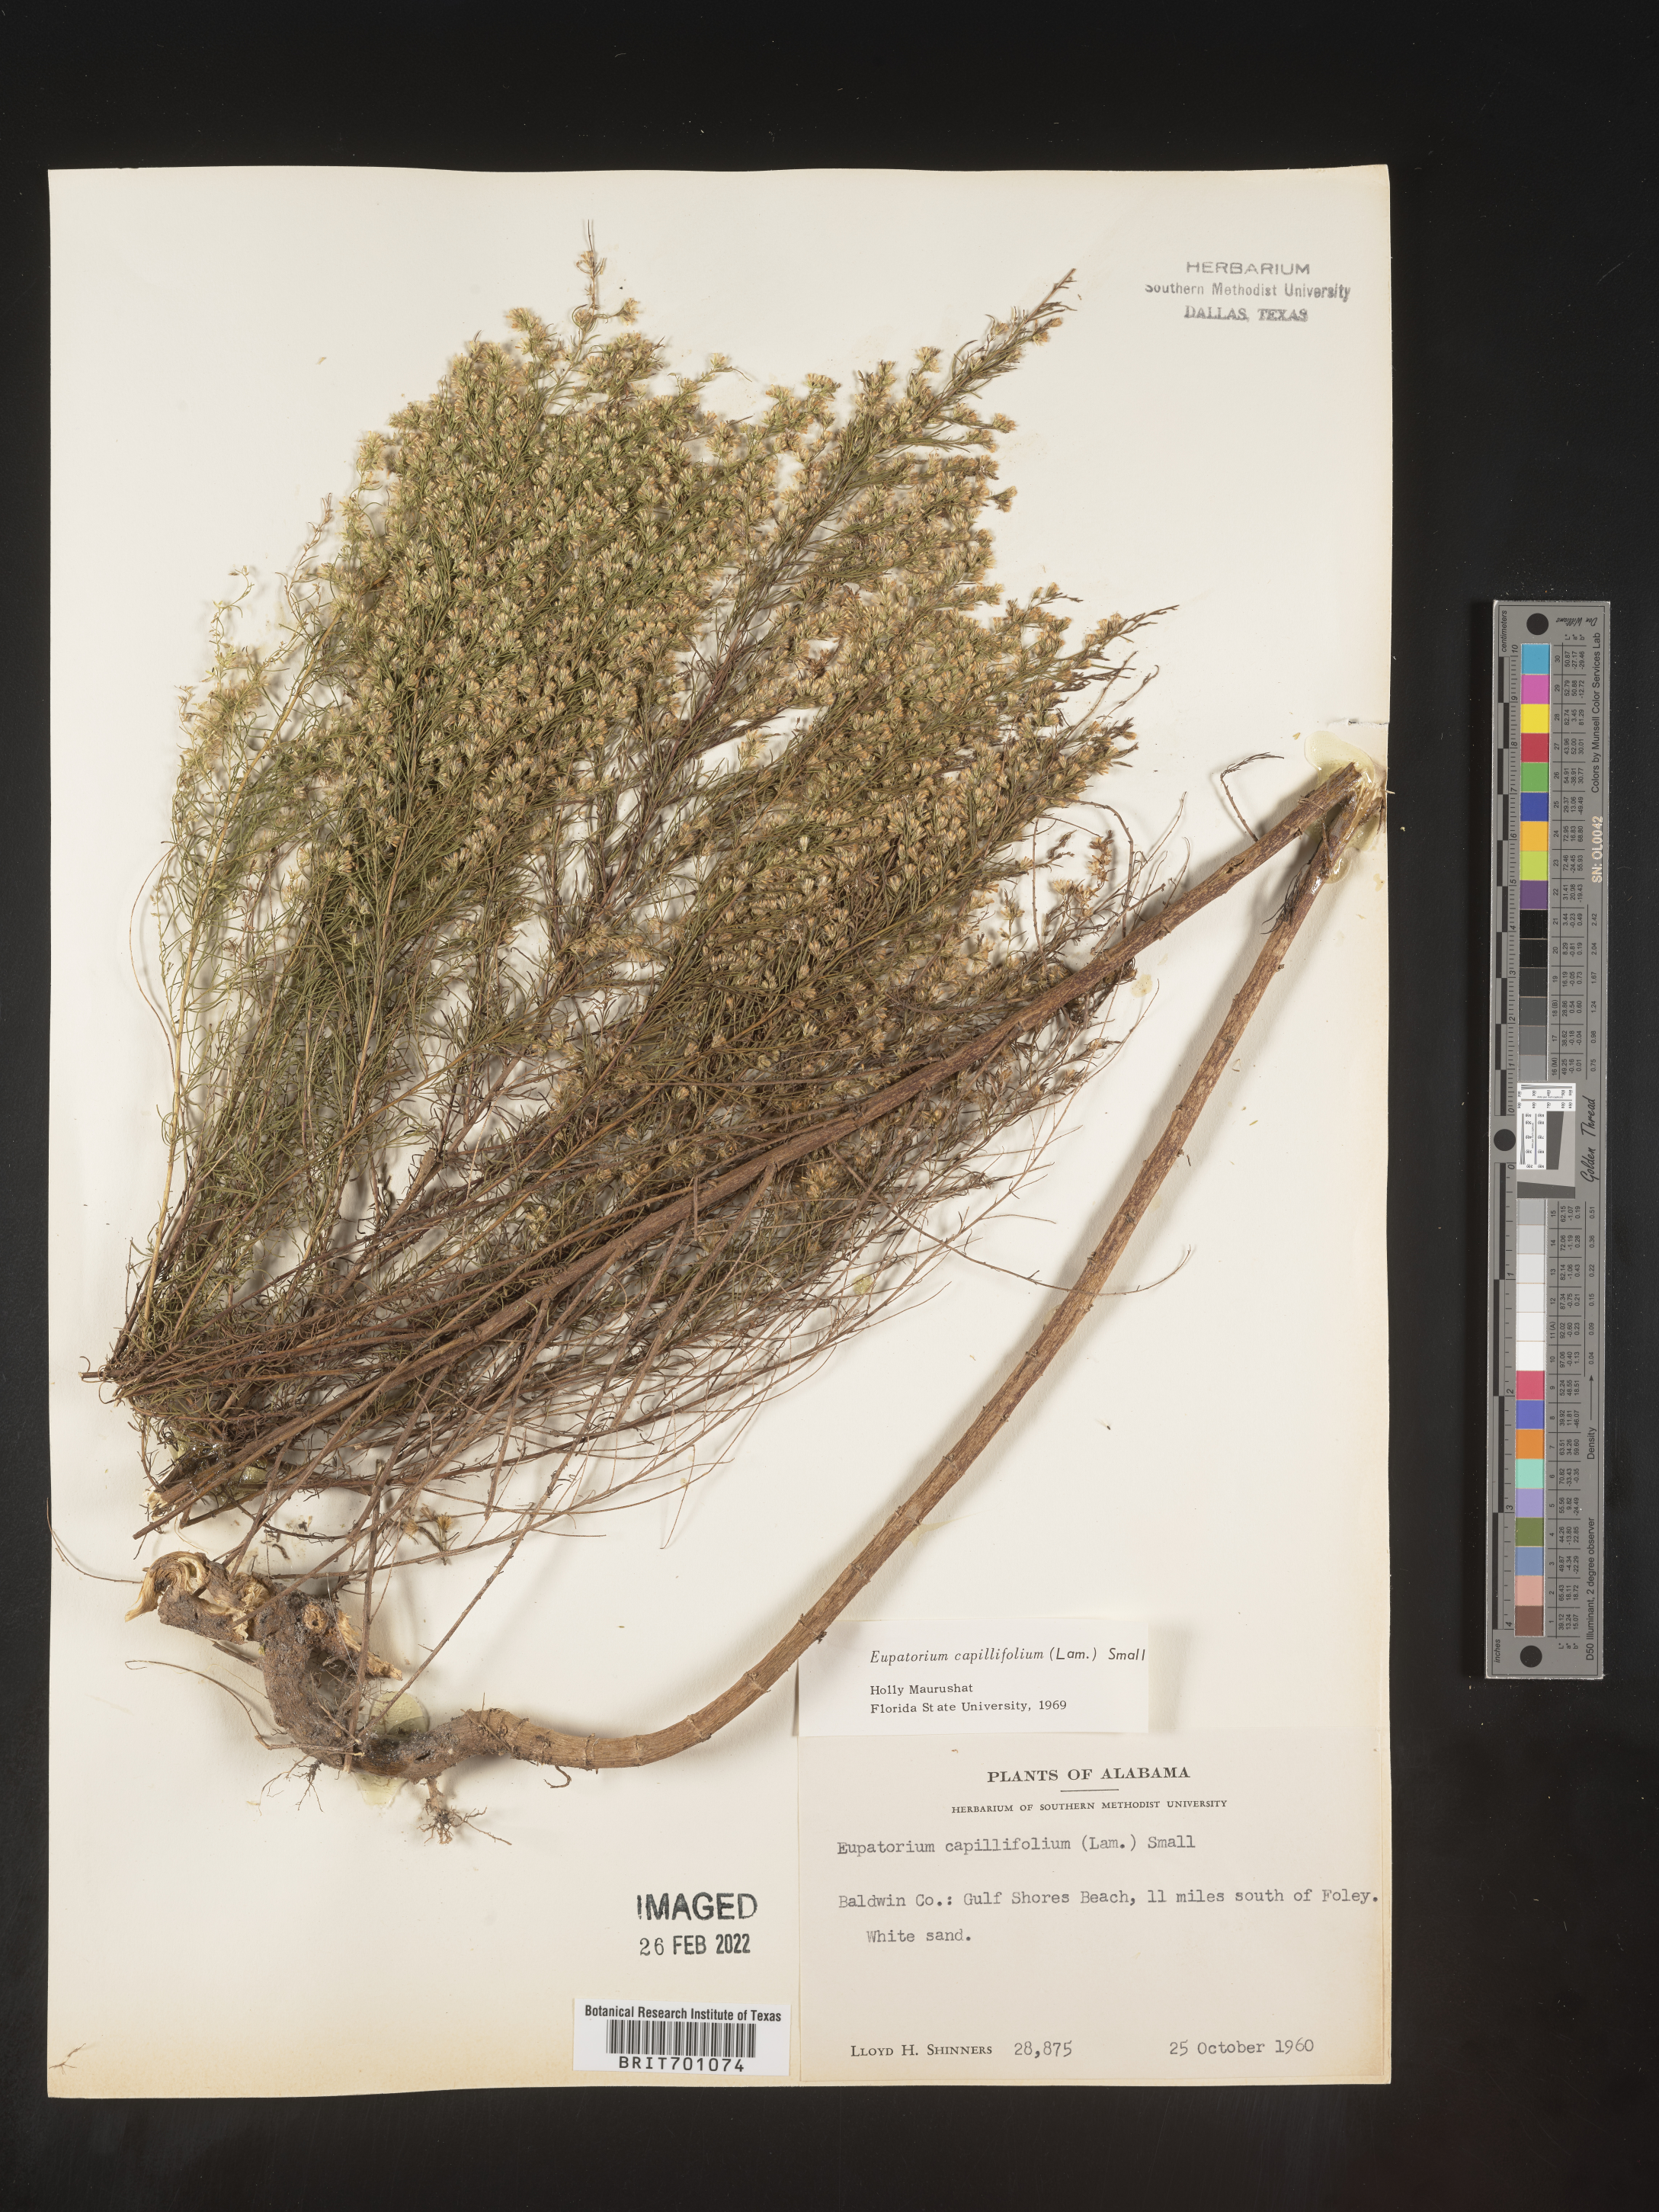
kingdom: Plantae
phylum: Tracheophyta
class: Magnoliopsida
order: Asterales
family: Asteraceae
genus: Eupatorium
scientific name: Eupatorium capillifolium
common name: Dog-fennel
